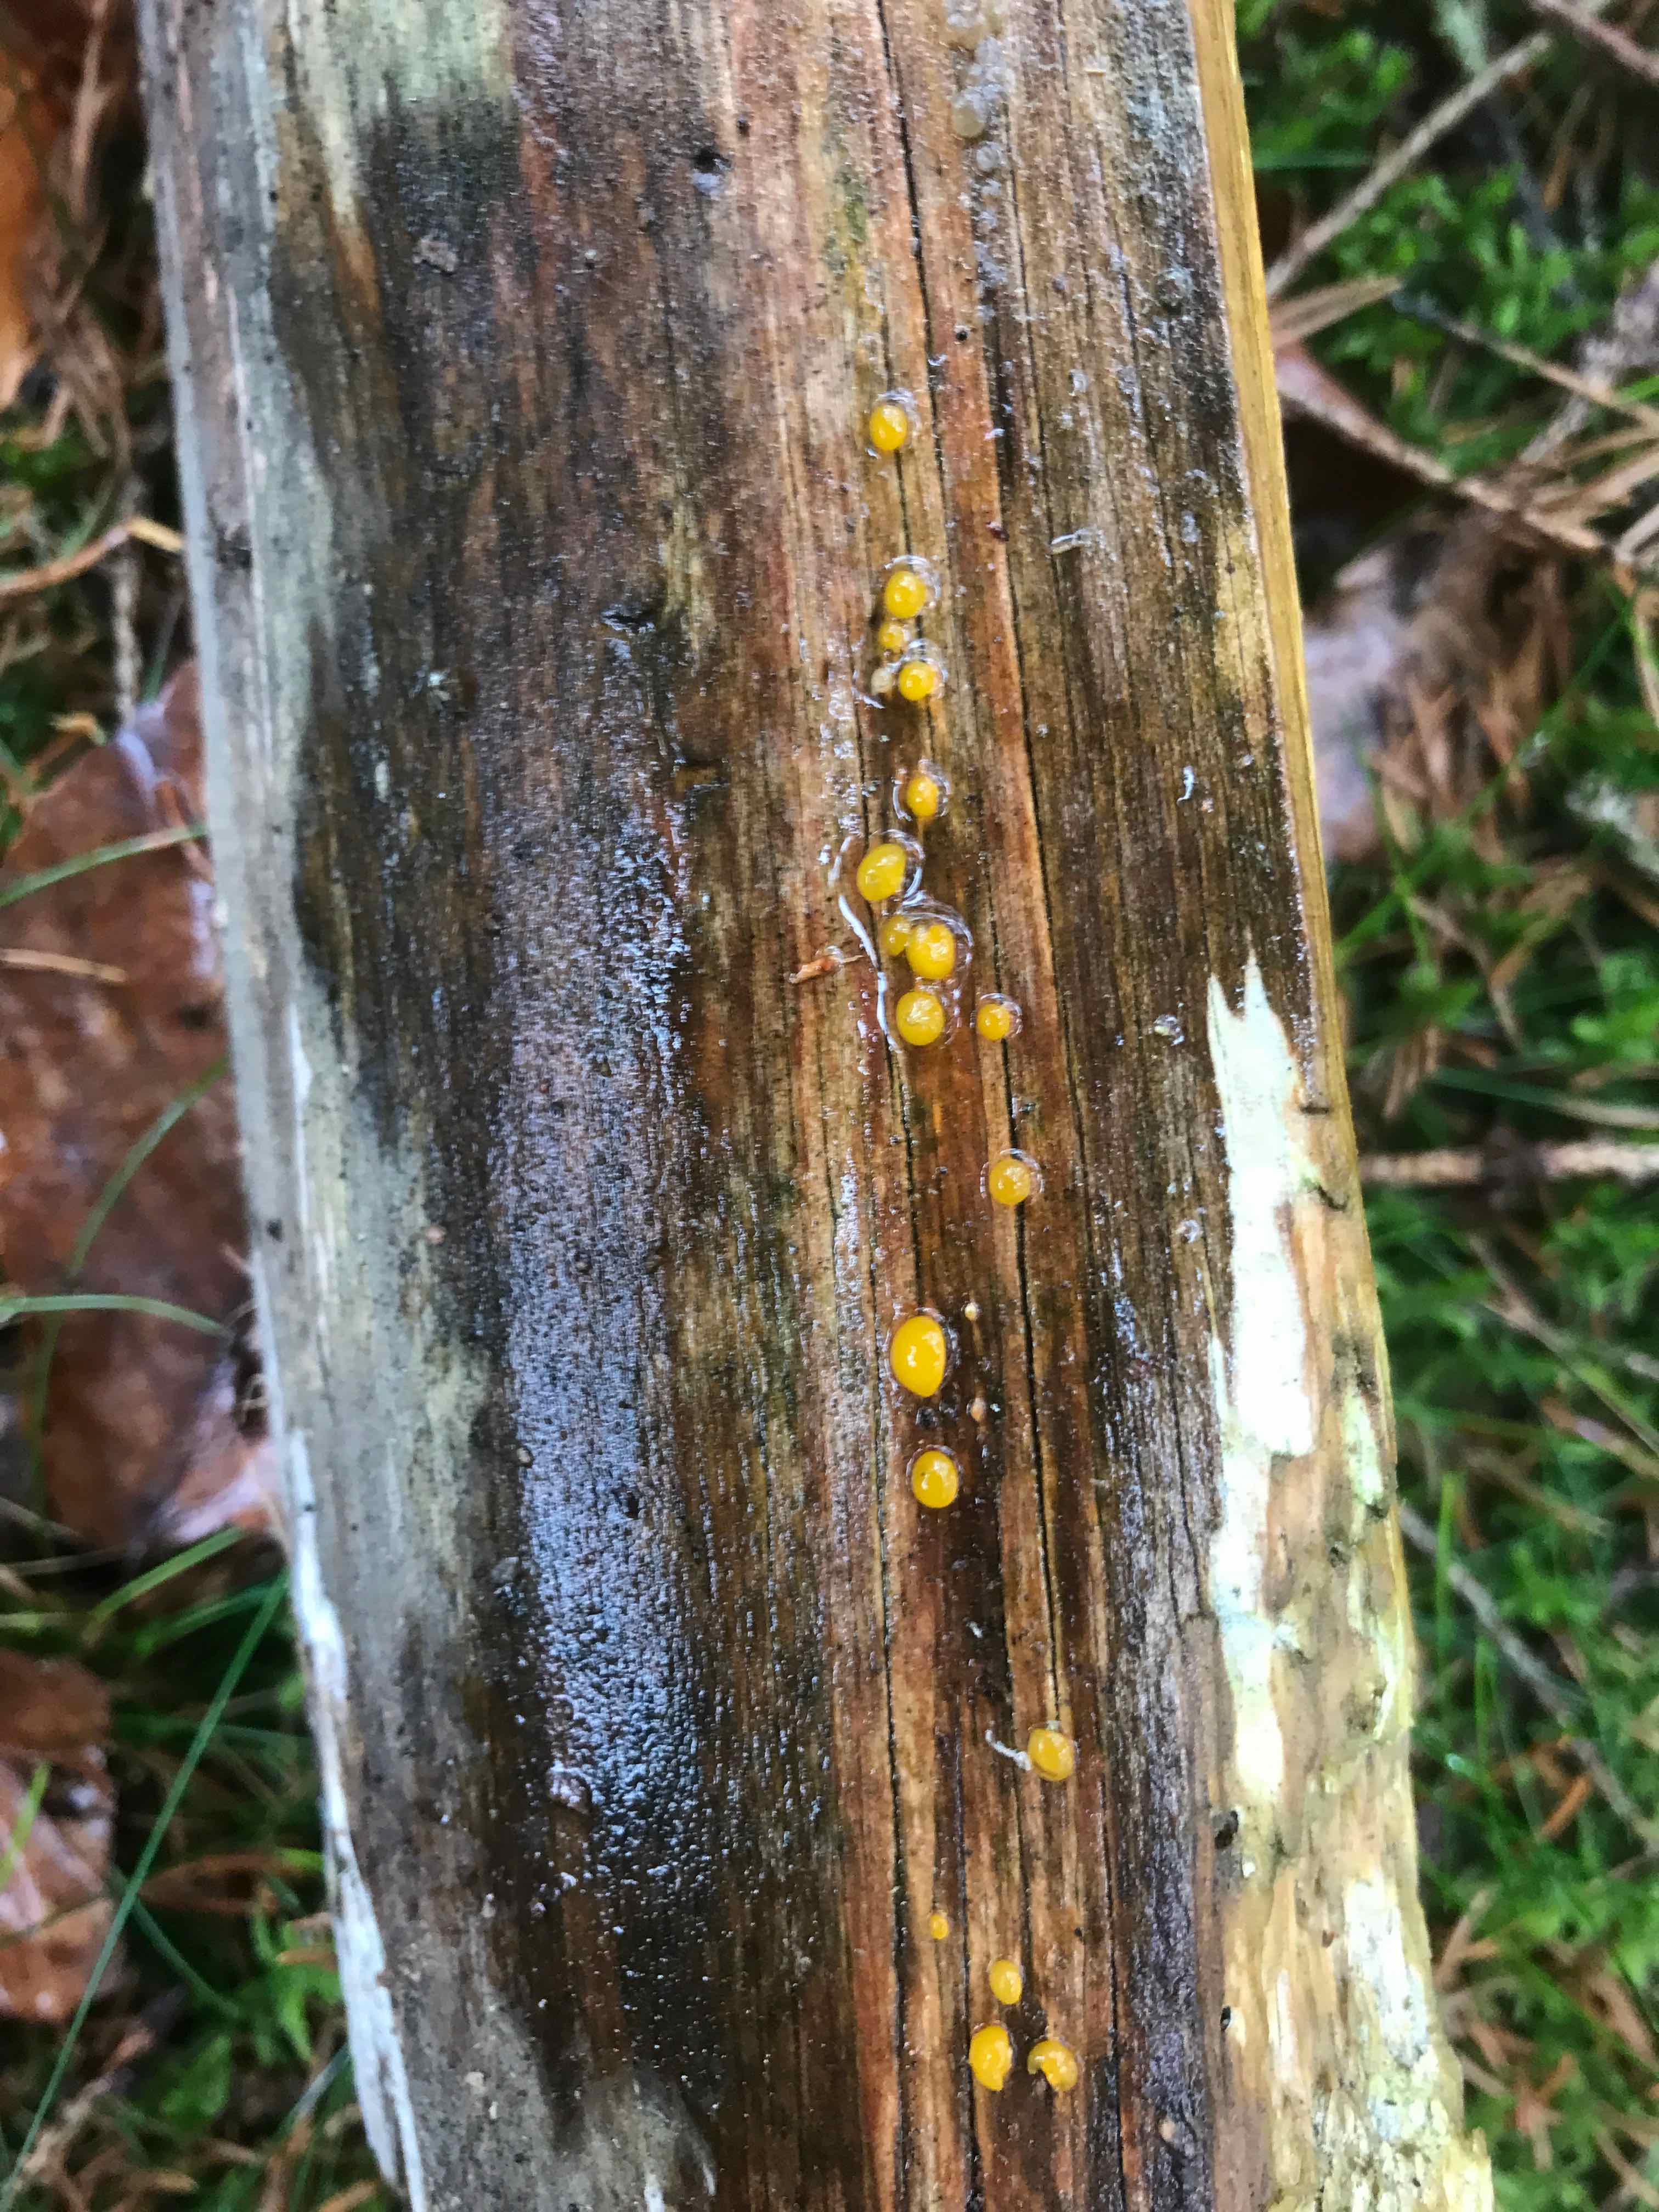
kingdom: Fungi
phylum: Basidiomycota
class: Dacrymycetes
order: Dacrymycetales
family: Dacrymycetaceae
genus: Dacrymyces
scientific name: Dacrymyces stillatus
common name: almindelig tåresvamp
